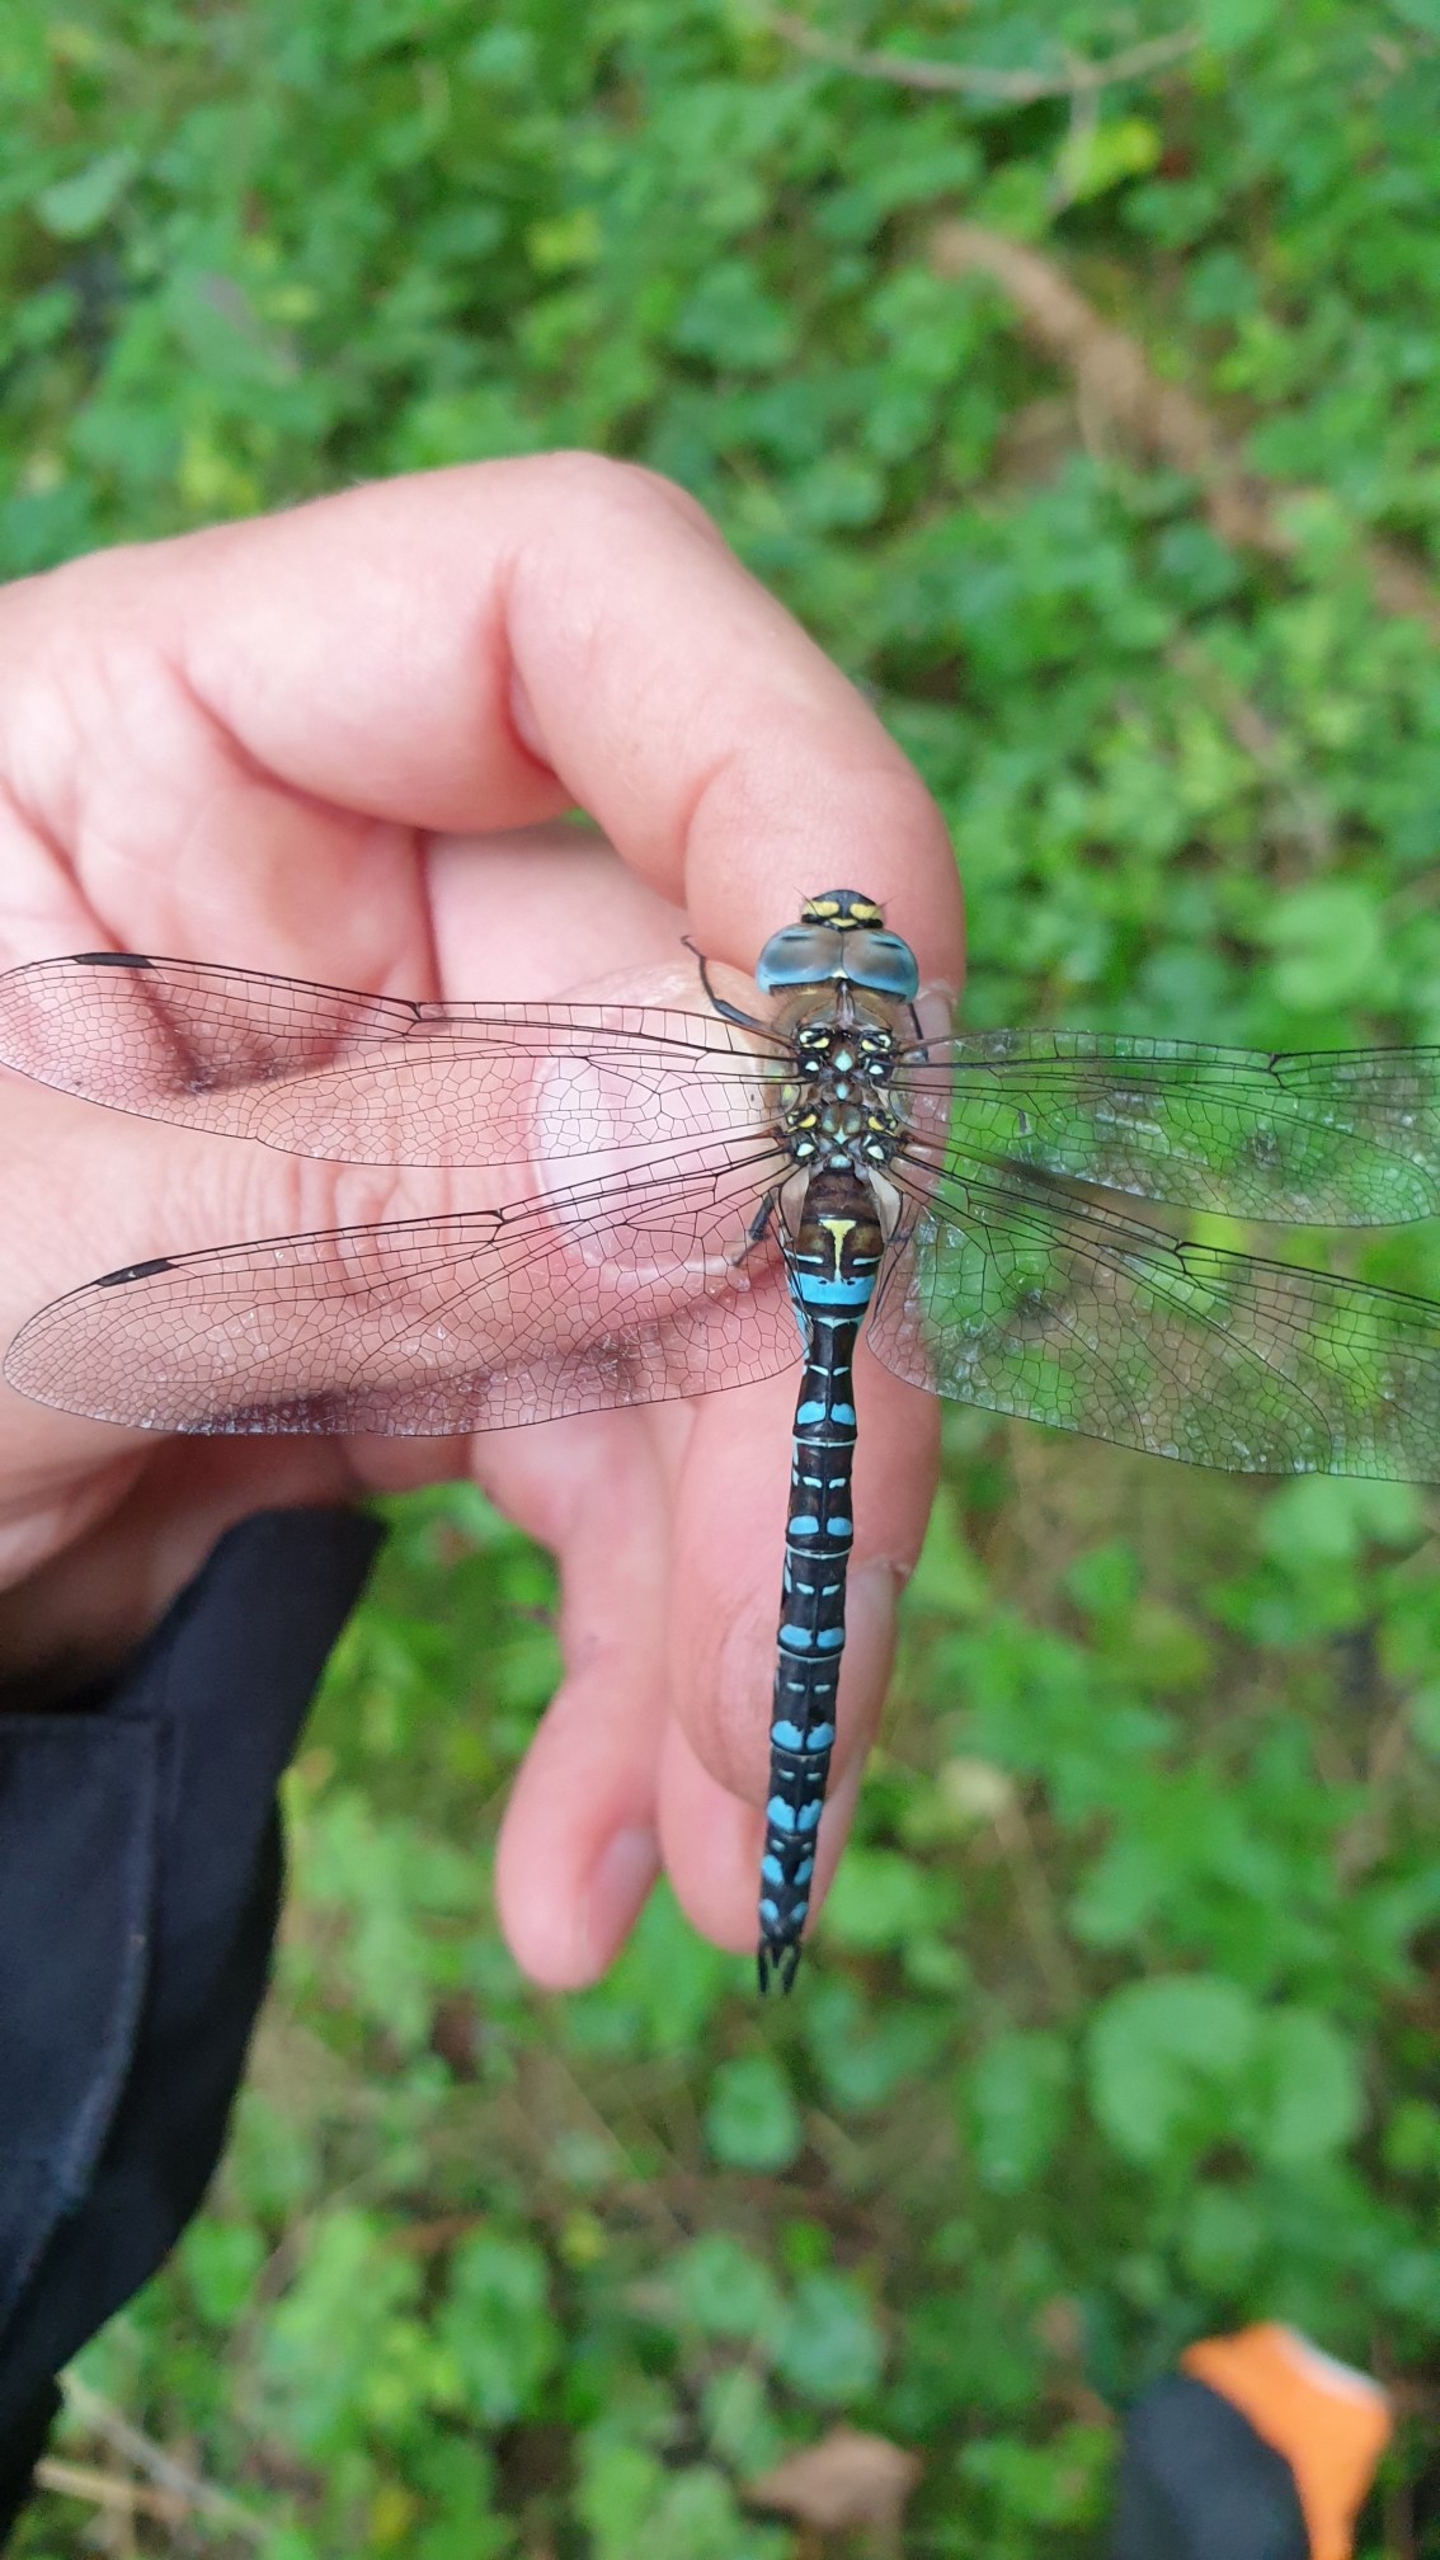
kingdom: Animalia
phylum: Arthropoda
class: Insecta
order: Odonata
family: Aeshnidae
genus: Aeshna
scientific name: Aeshna mixta
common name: Efterårs-mosaikguldsmed
